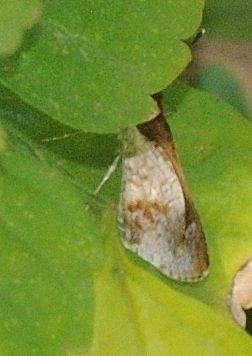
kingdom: Animalia
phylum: Arthropoda
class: Insecta
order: Lepidoptera
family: Hesperiidae
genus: Acleros
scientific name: Acleros
